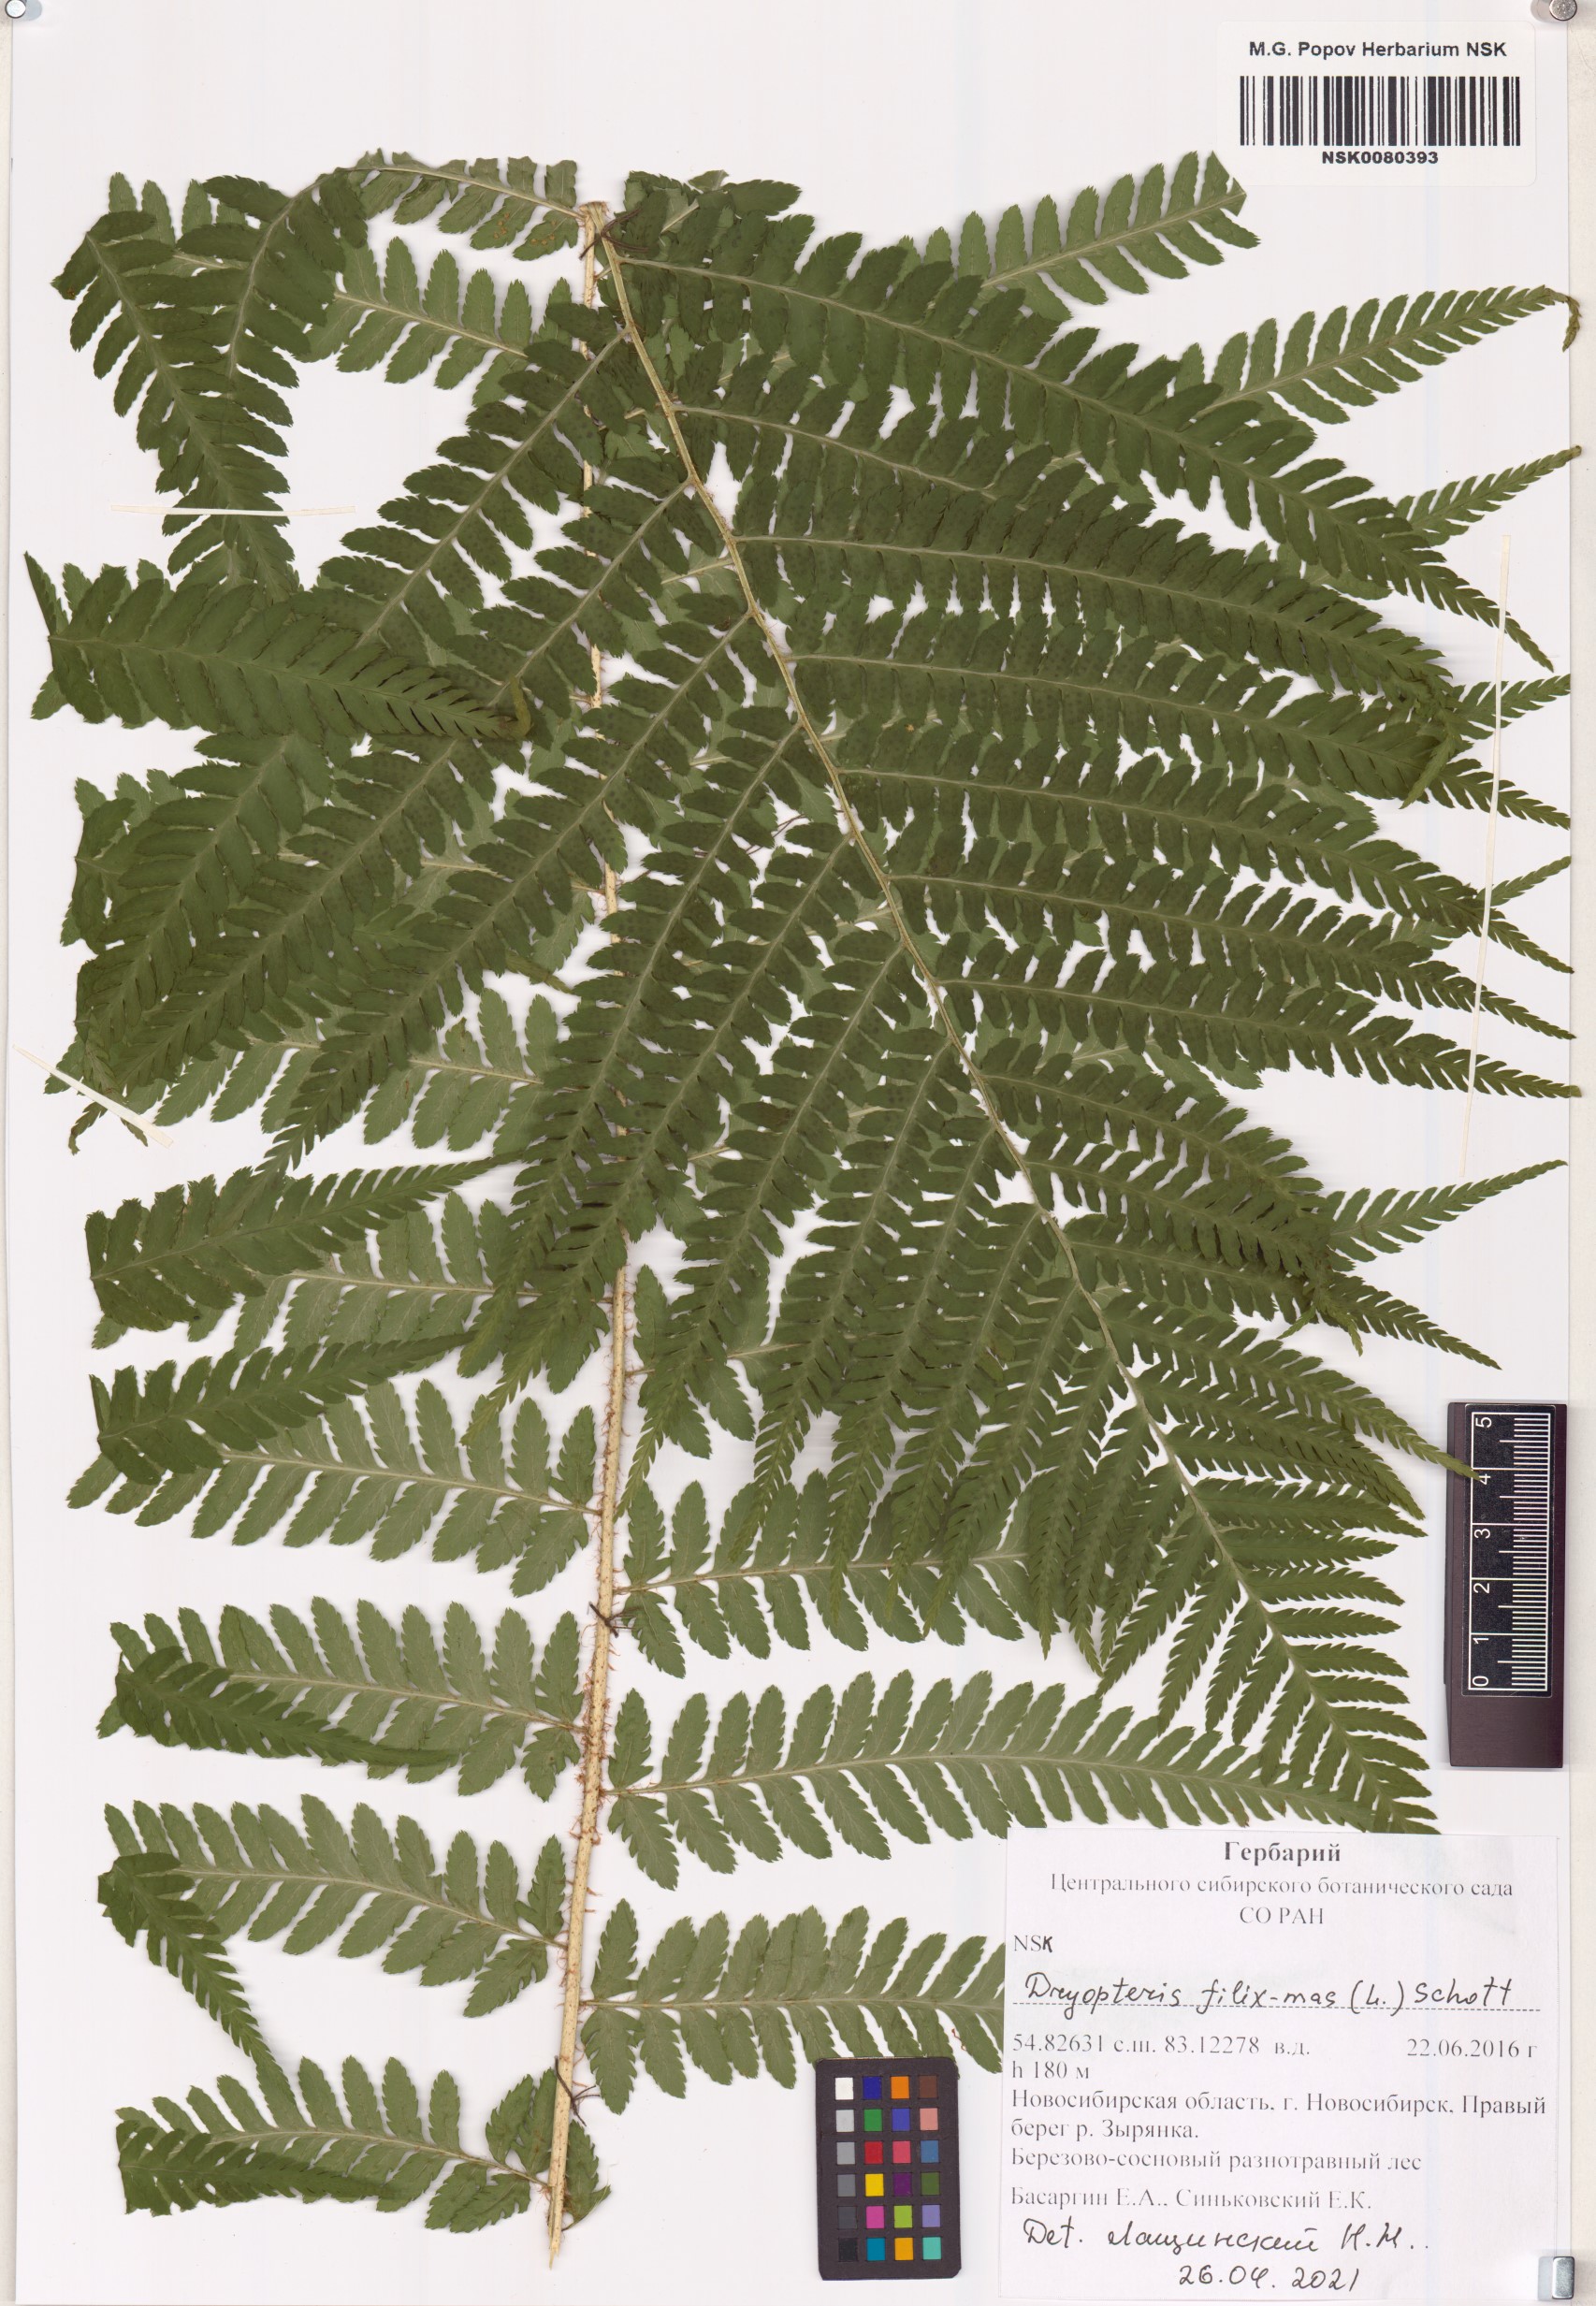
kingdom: Plantae
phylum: Tracheophyta
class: Polypodiopsida
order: Polypodiales
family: Dryopteridaceae
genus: Dryopteris
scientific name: Dryopteris filix-mas
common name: Male fern
